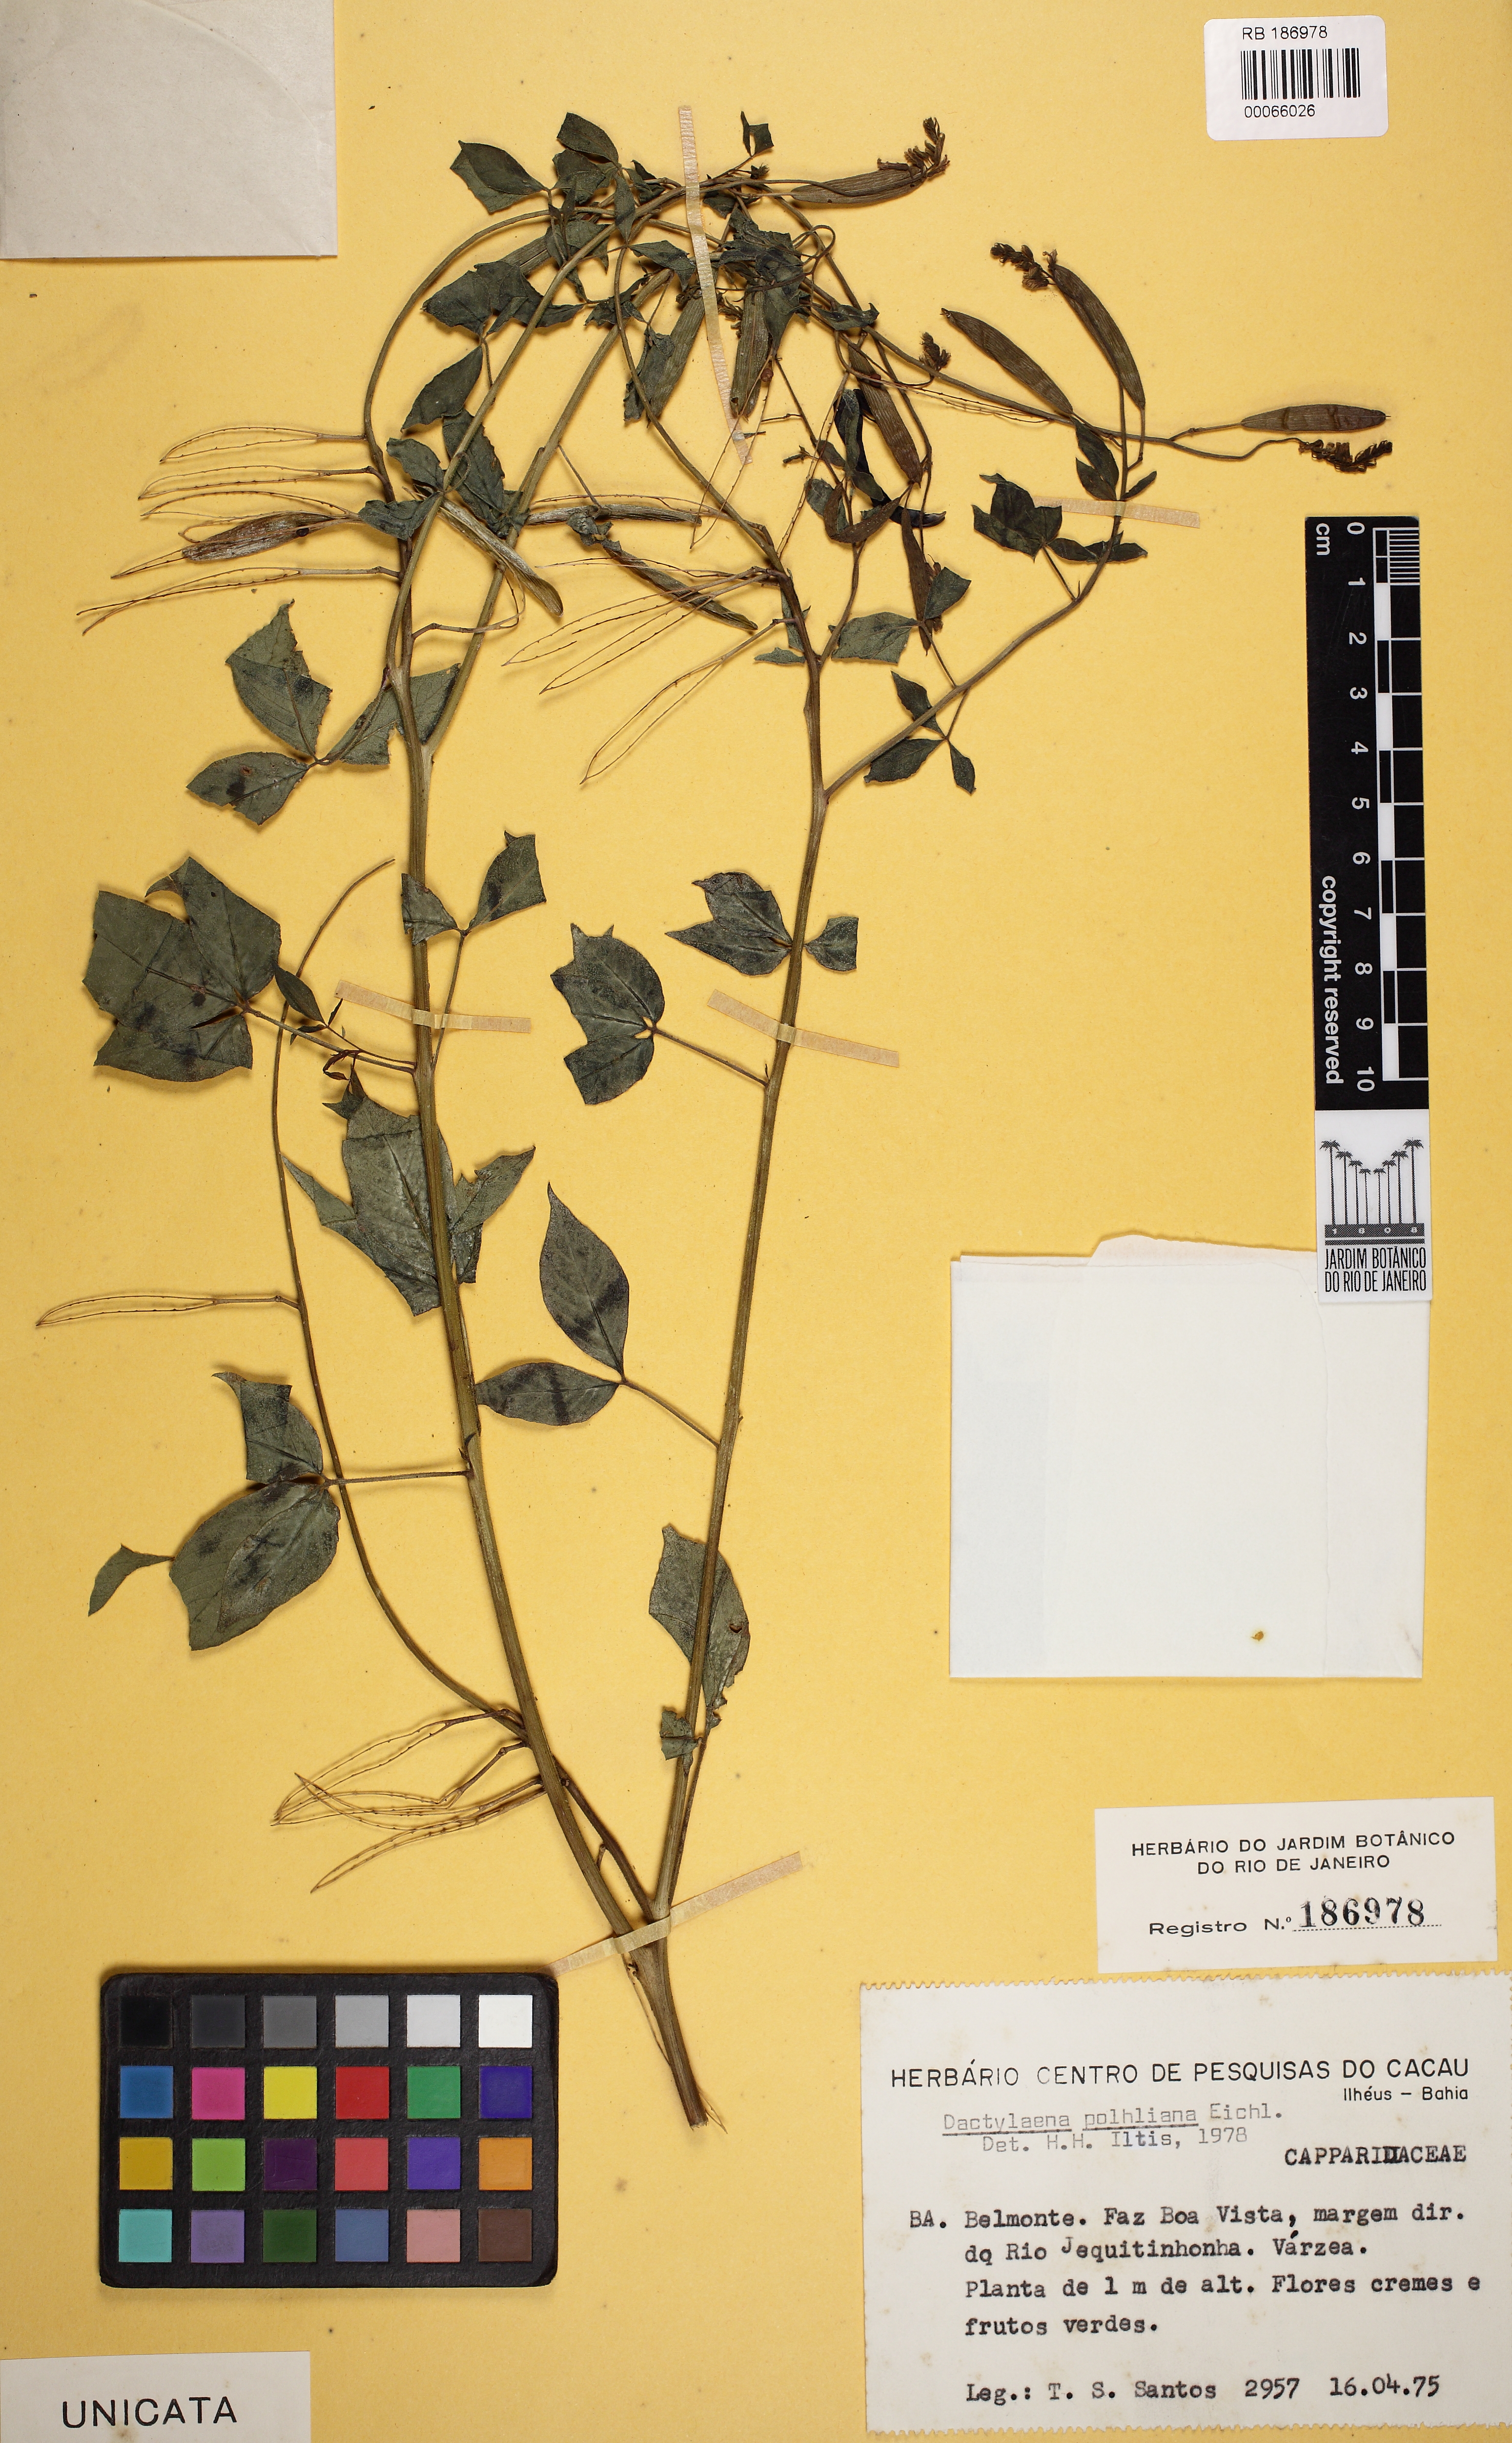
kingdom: Plantae
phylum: Tracheophyta
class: Magnoliopsida
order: Brassicales
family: Cleomaceae
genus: Dactylaena
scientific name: Dactylaena pohliana
